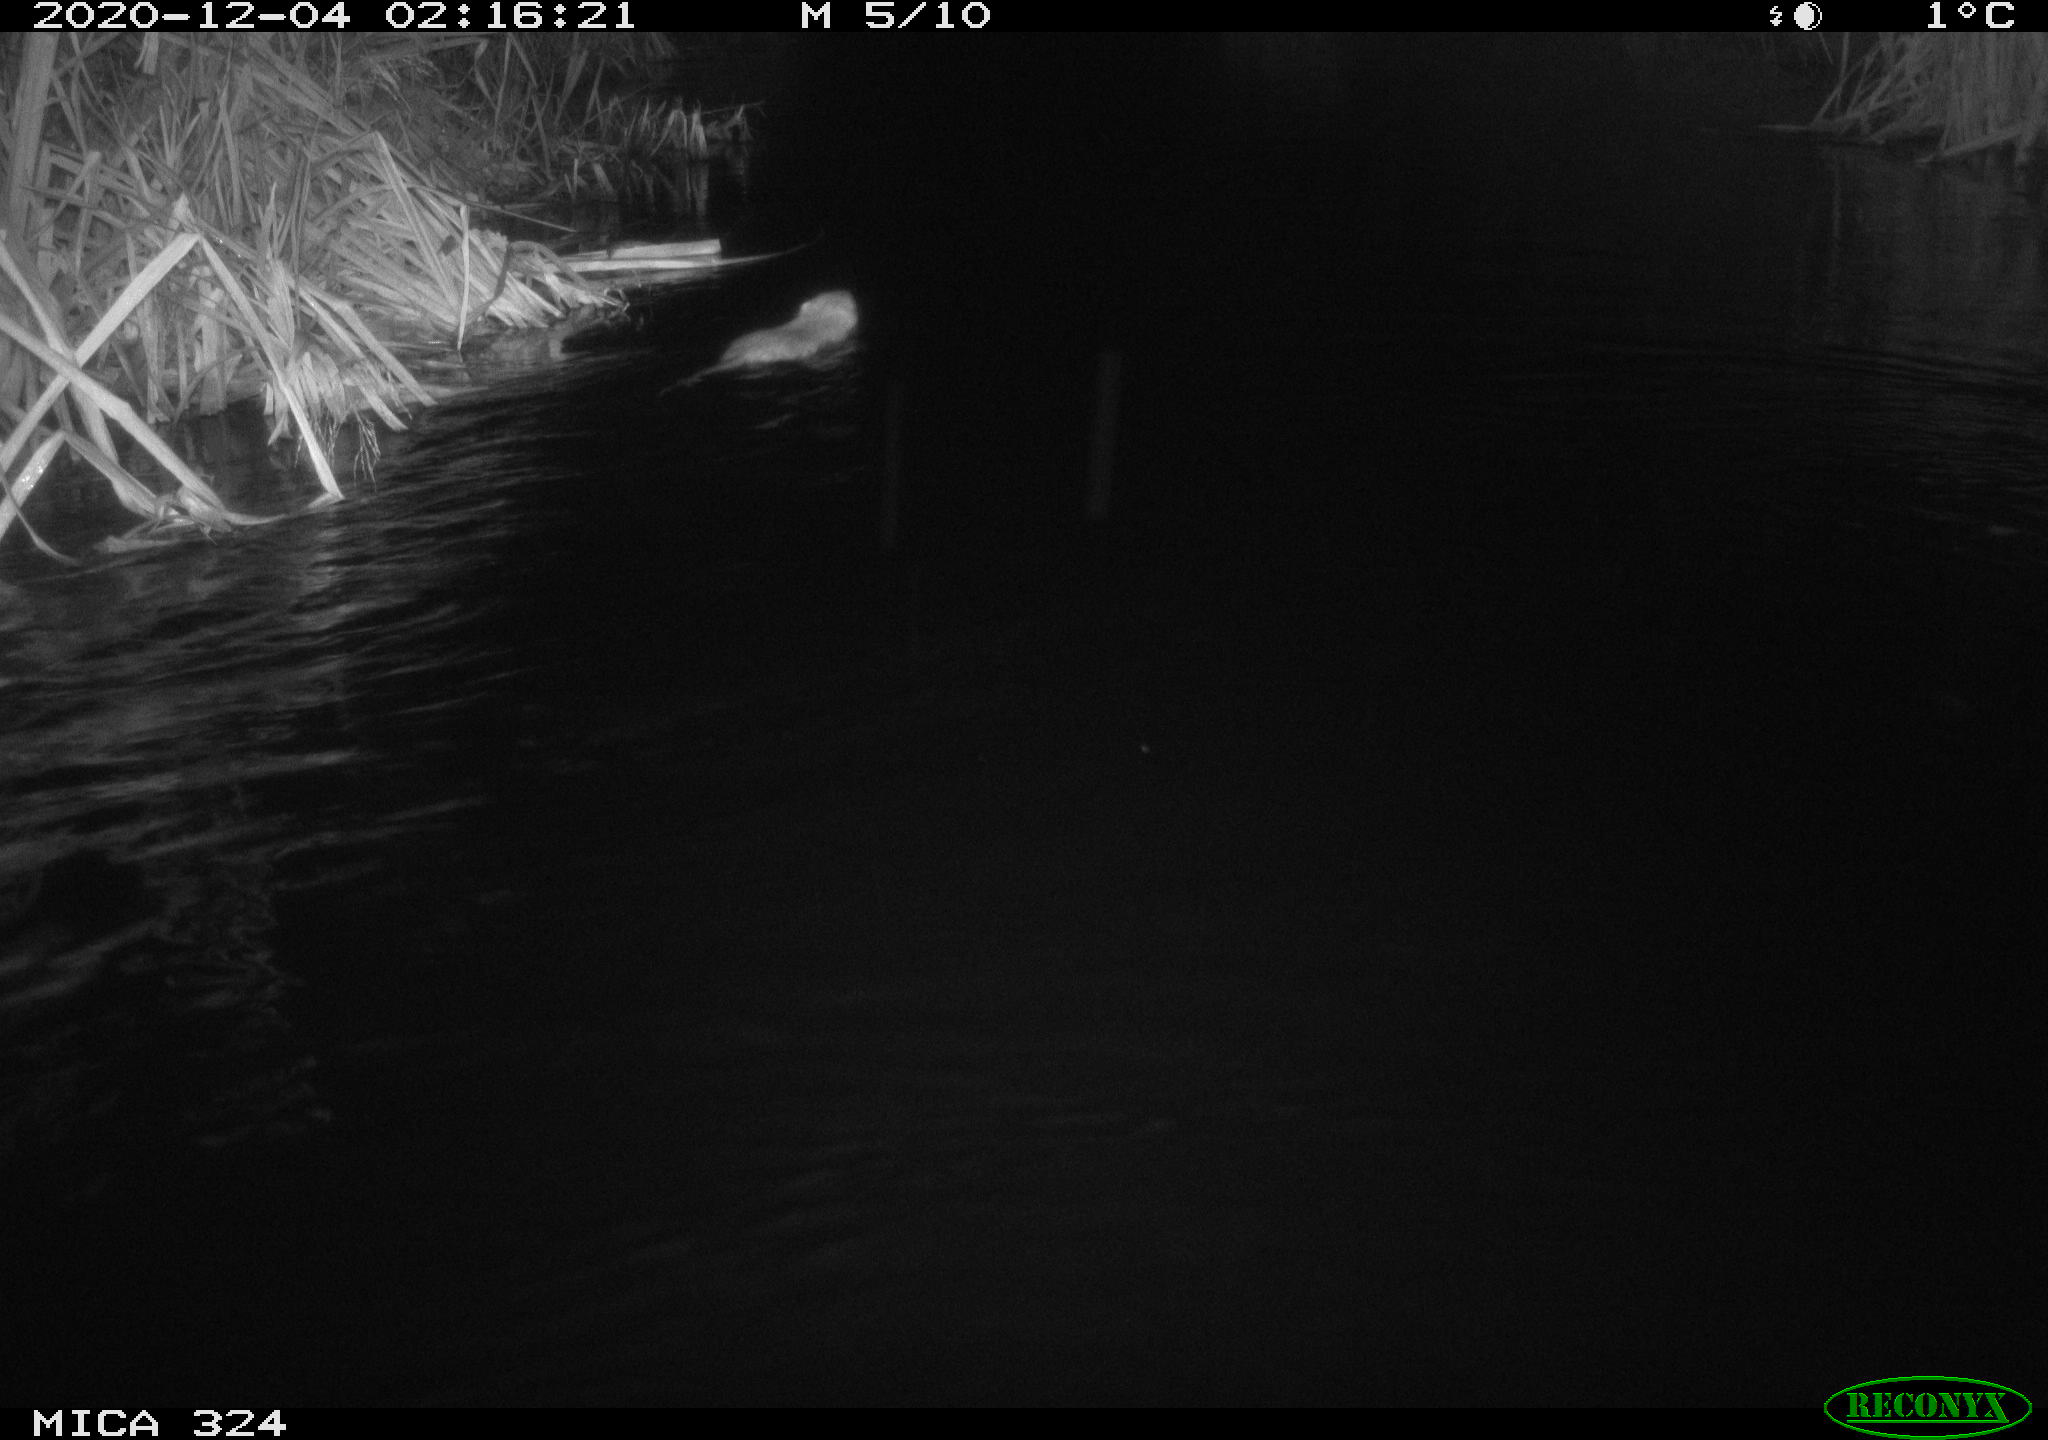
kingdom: Animalia
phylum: Chordata
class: Mammalia
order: Rodentia
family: Myocastoridae
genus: Myocastor
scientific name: Myocastor coypus
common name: Coypu
